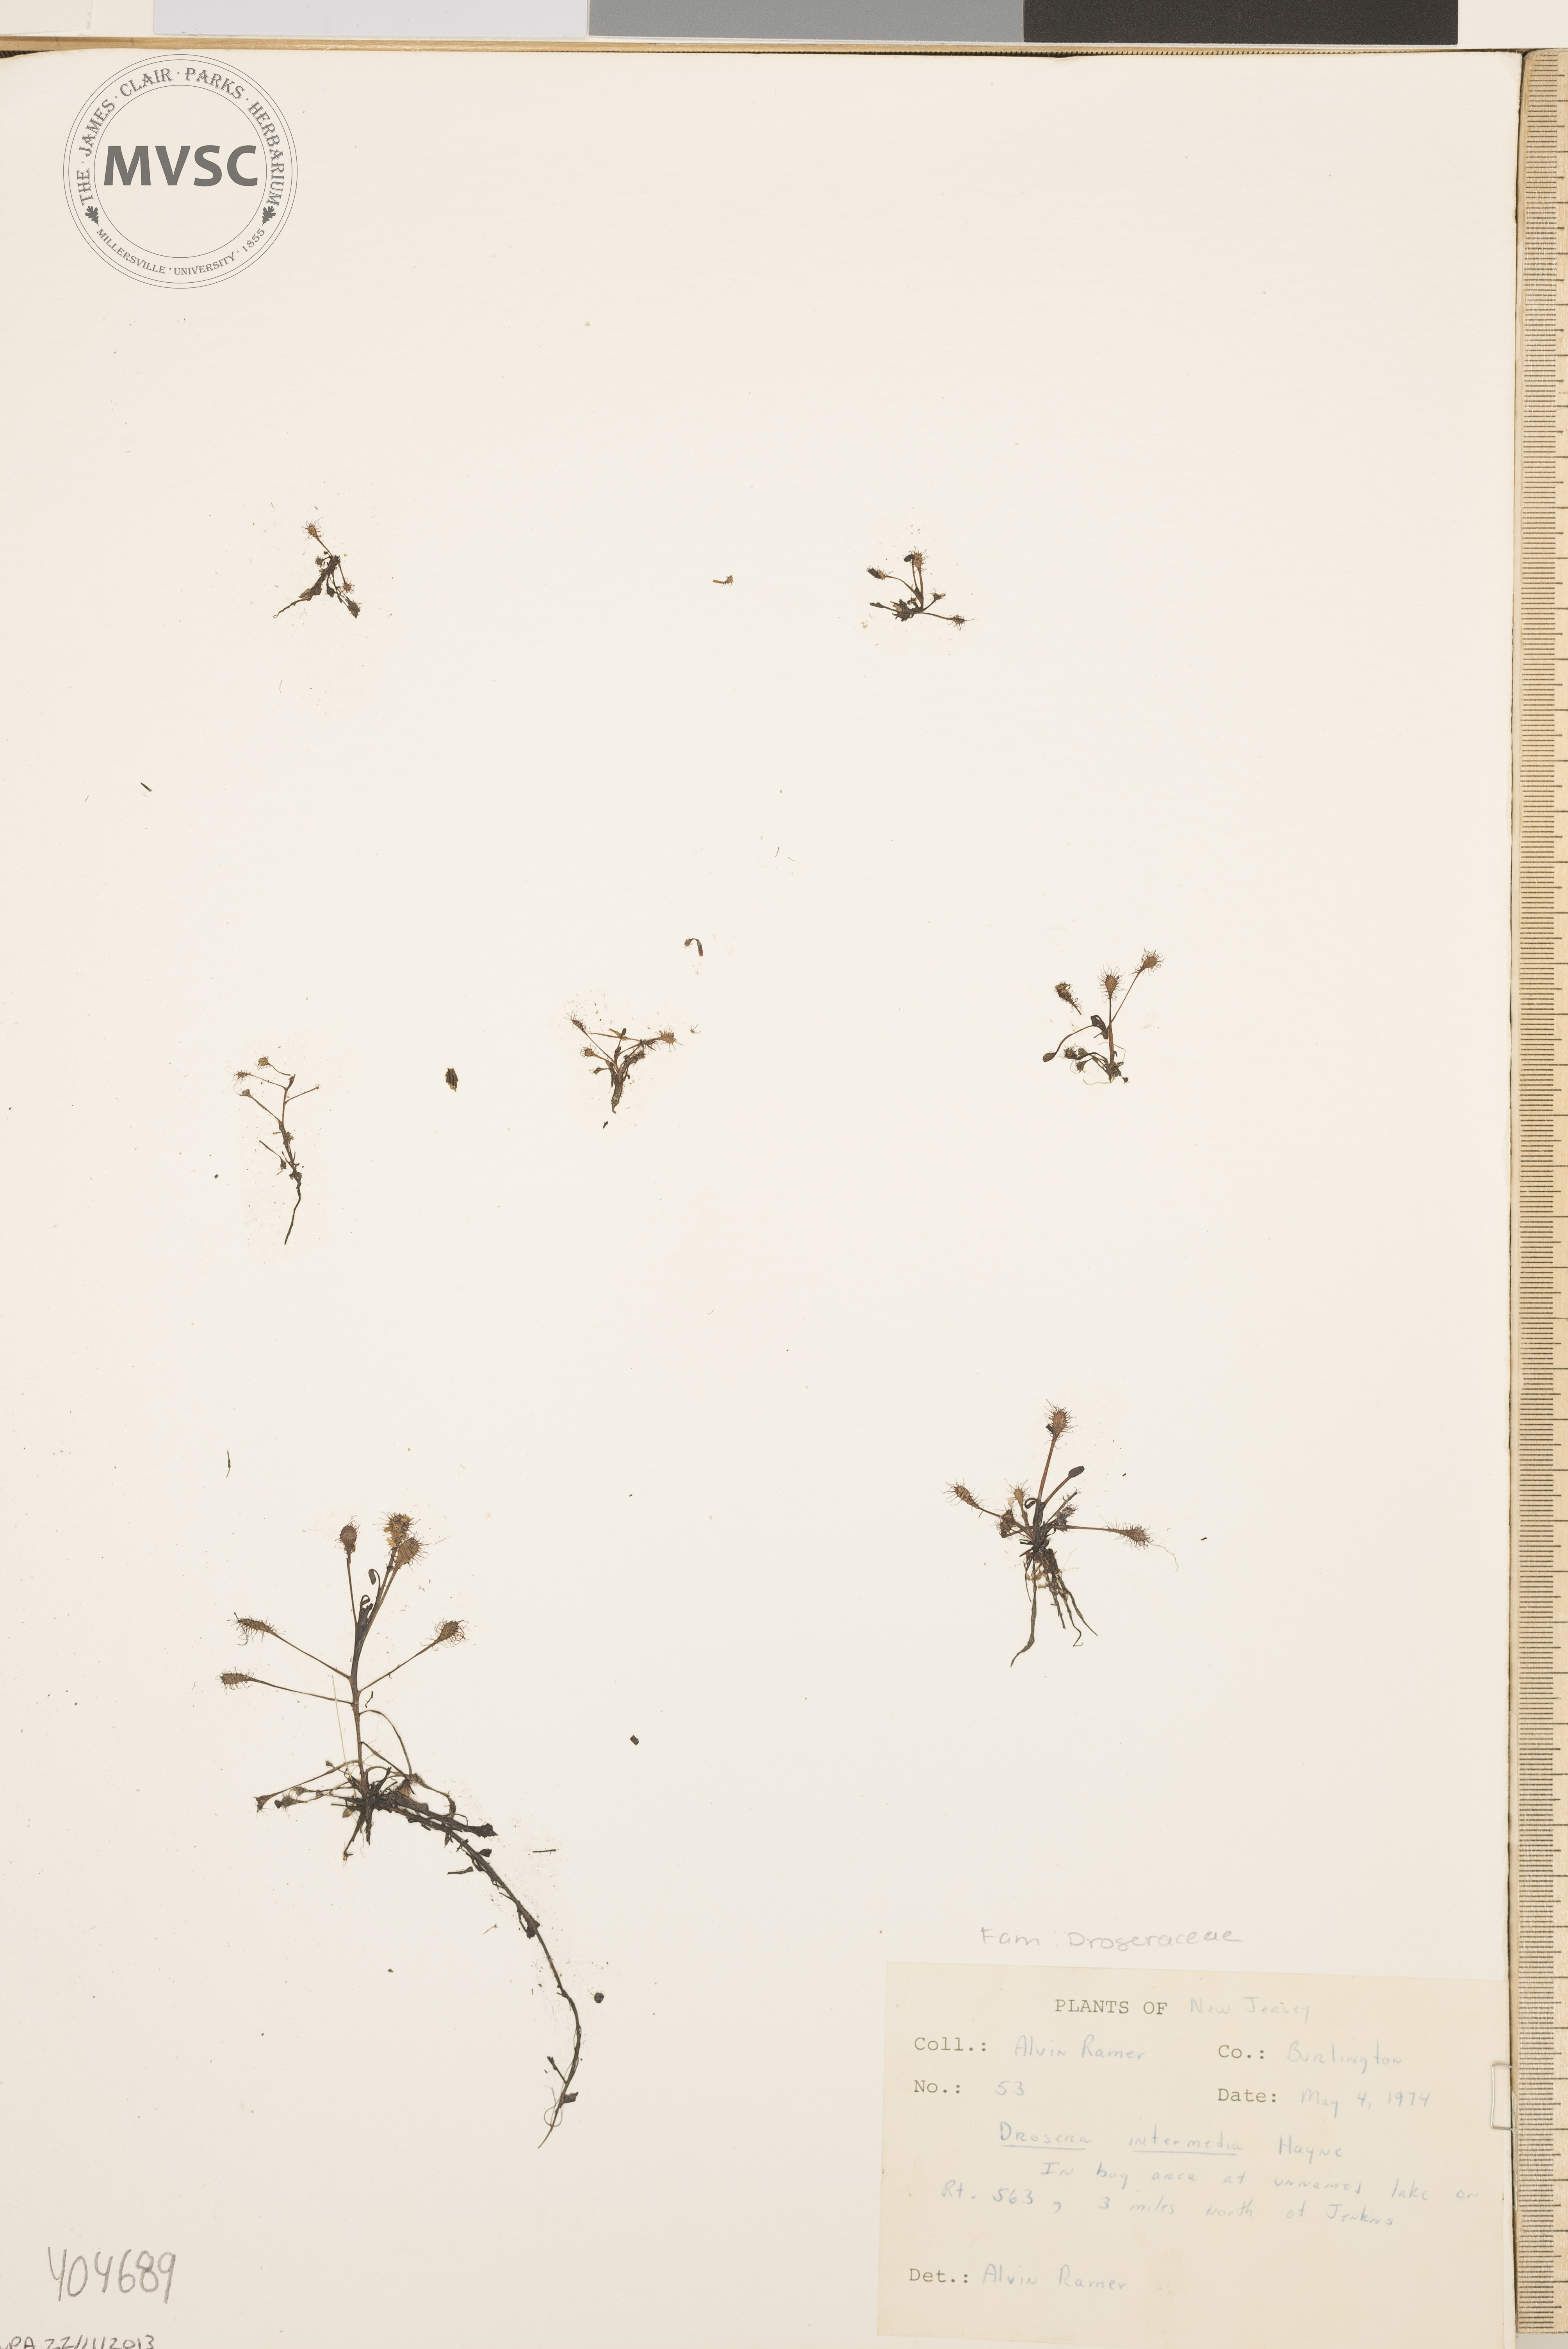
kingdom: Plantae
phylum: Tracheophyta
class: Magnoliopsida
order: Caryophyllales
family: Droseraceae
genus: Drosera
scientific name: Drosera intermedia
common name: Oblong-leaved sundew
